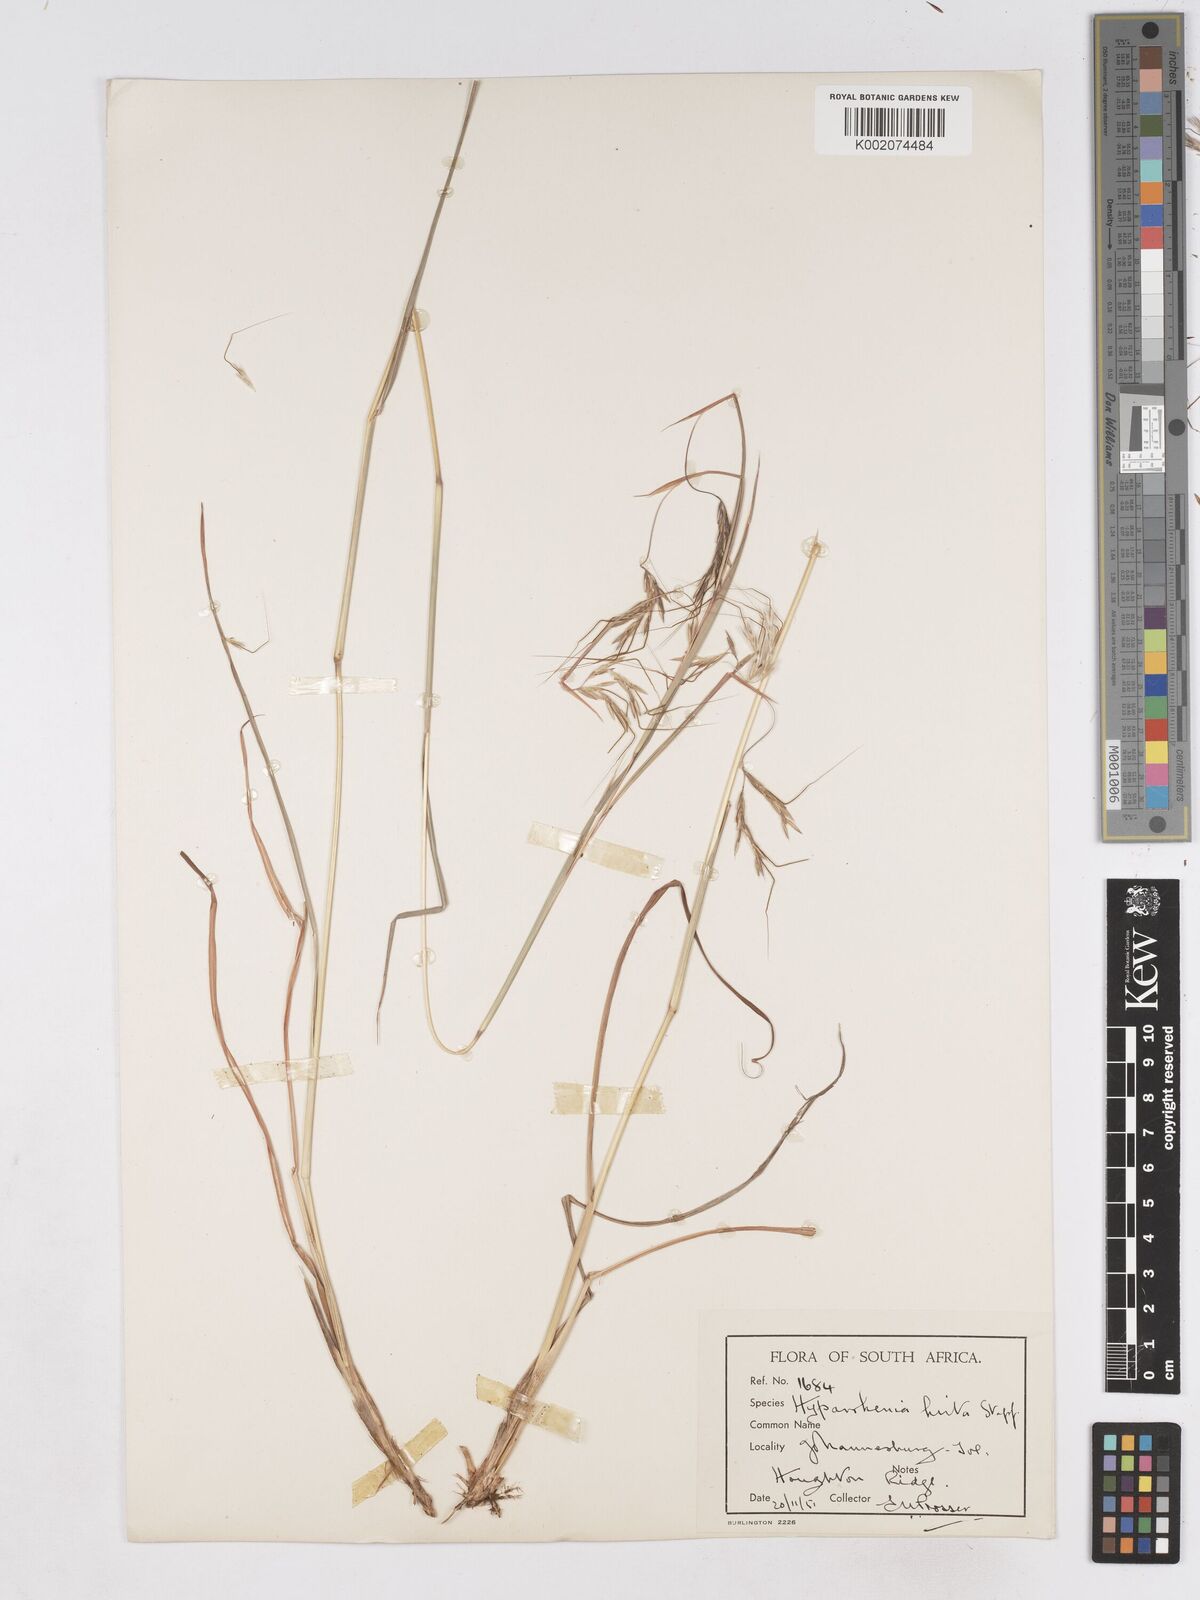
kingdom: Plantae
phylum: Tracheophyta
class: Liliopsida
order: Poales
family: Poaceae
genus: Hyparrhenia
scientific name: Hyparrhenia hirta
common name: Thatching grass
